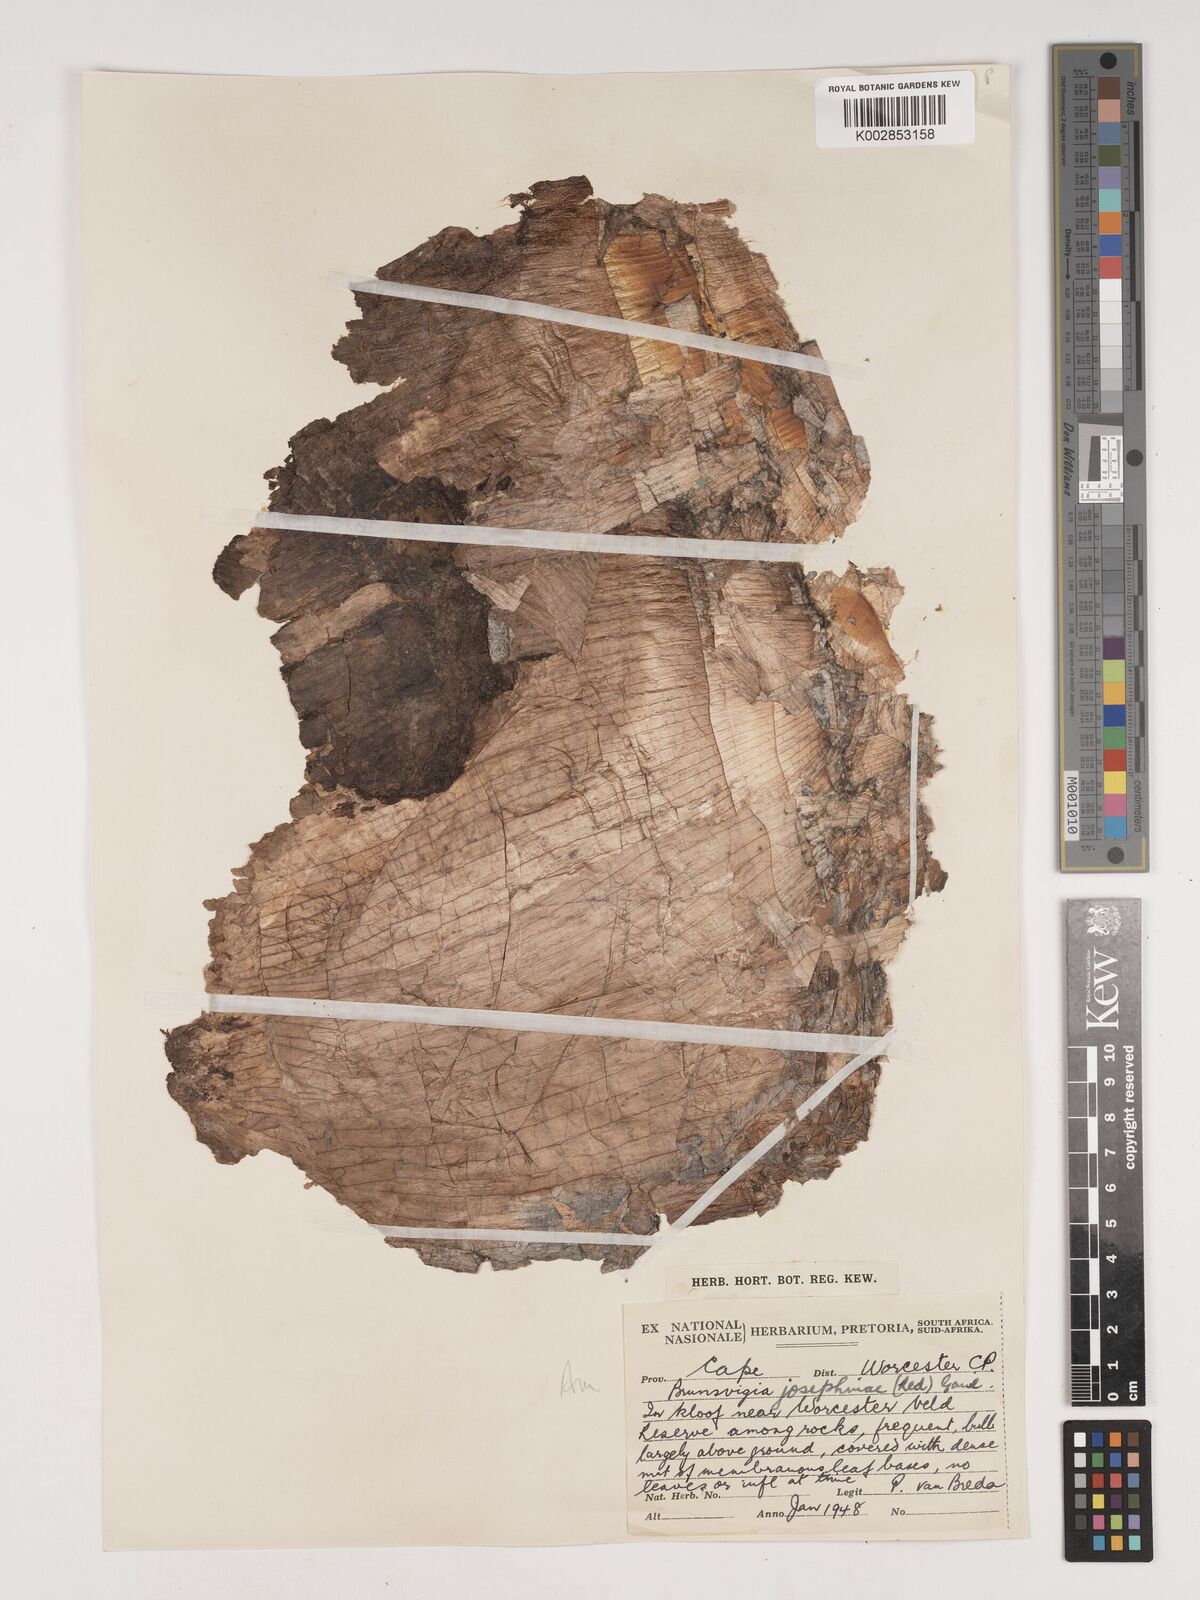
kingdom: Plantae
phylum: Tracheophyta
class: Liliopsida
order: Asparagales
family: Amaryllidaceae
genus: Brunsvigia
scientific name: Brunsvigia josephinae
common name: Josephine's-lily
